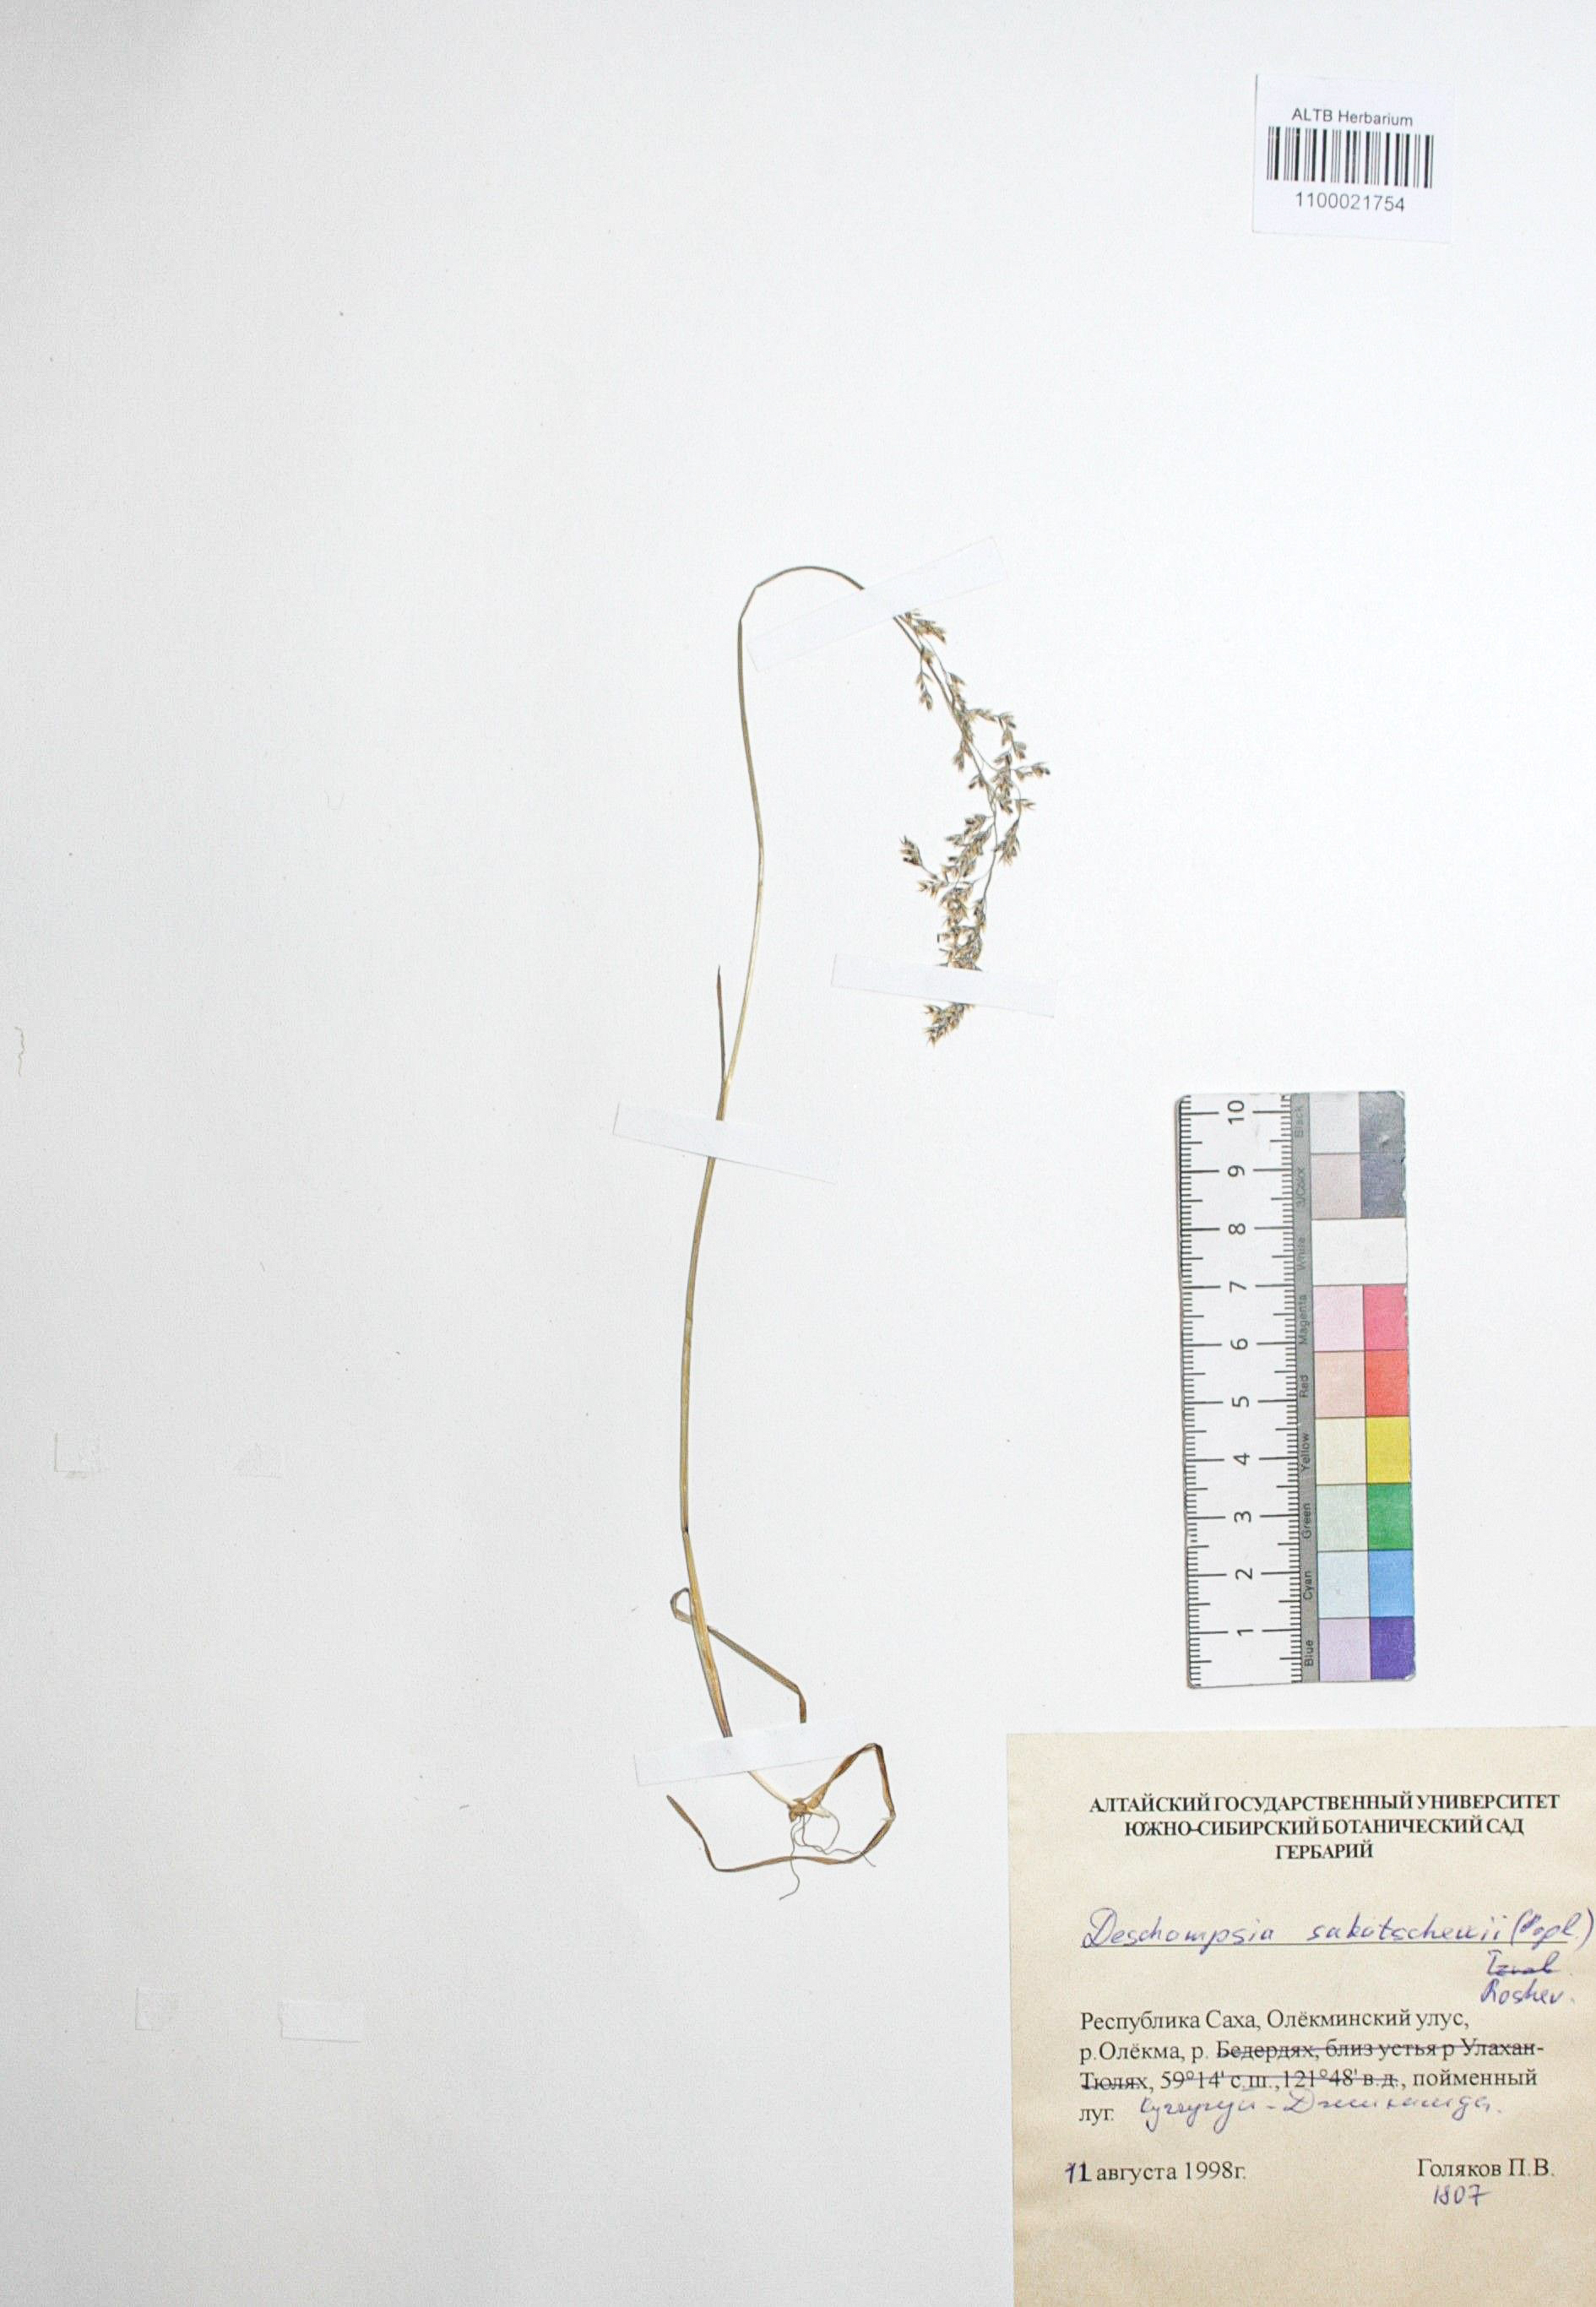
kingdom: Plantae
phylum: Tracheophyta
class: Liliopsida
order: Poales
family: Poaceae
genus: Deschampsia
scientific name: Deschampsia cespitosa
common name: Tufted hair-grass
